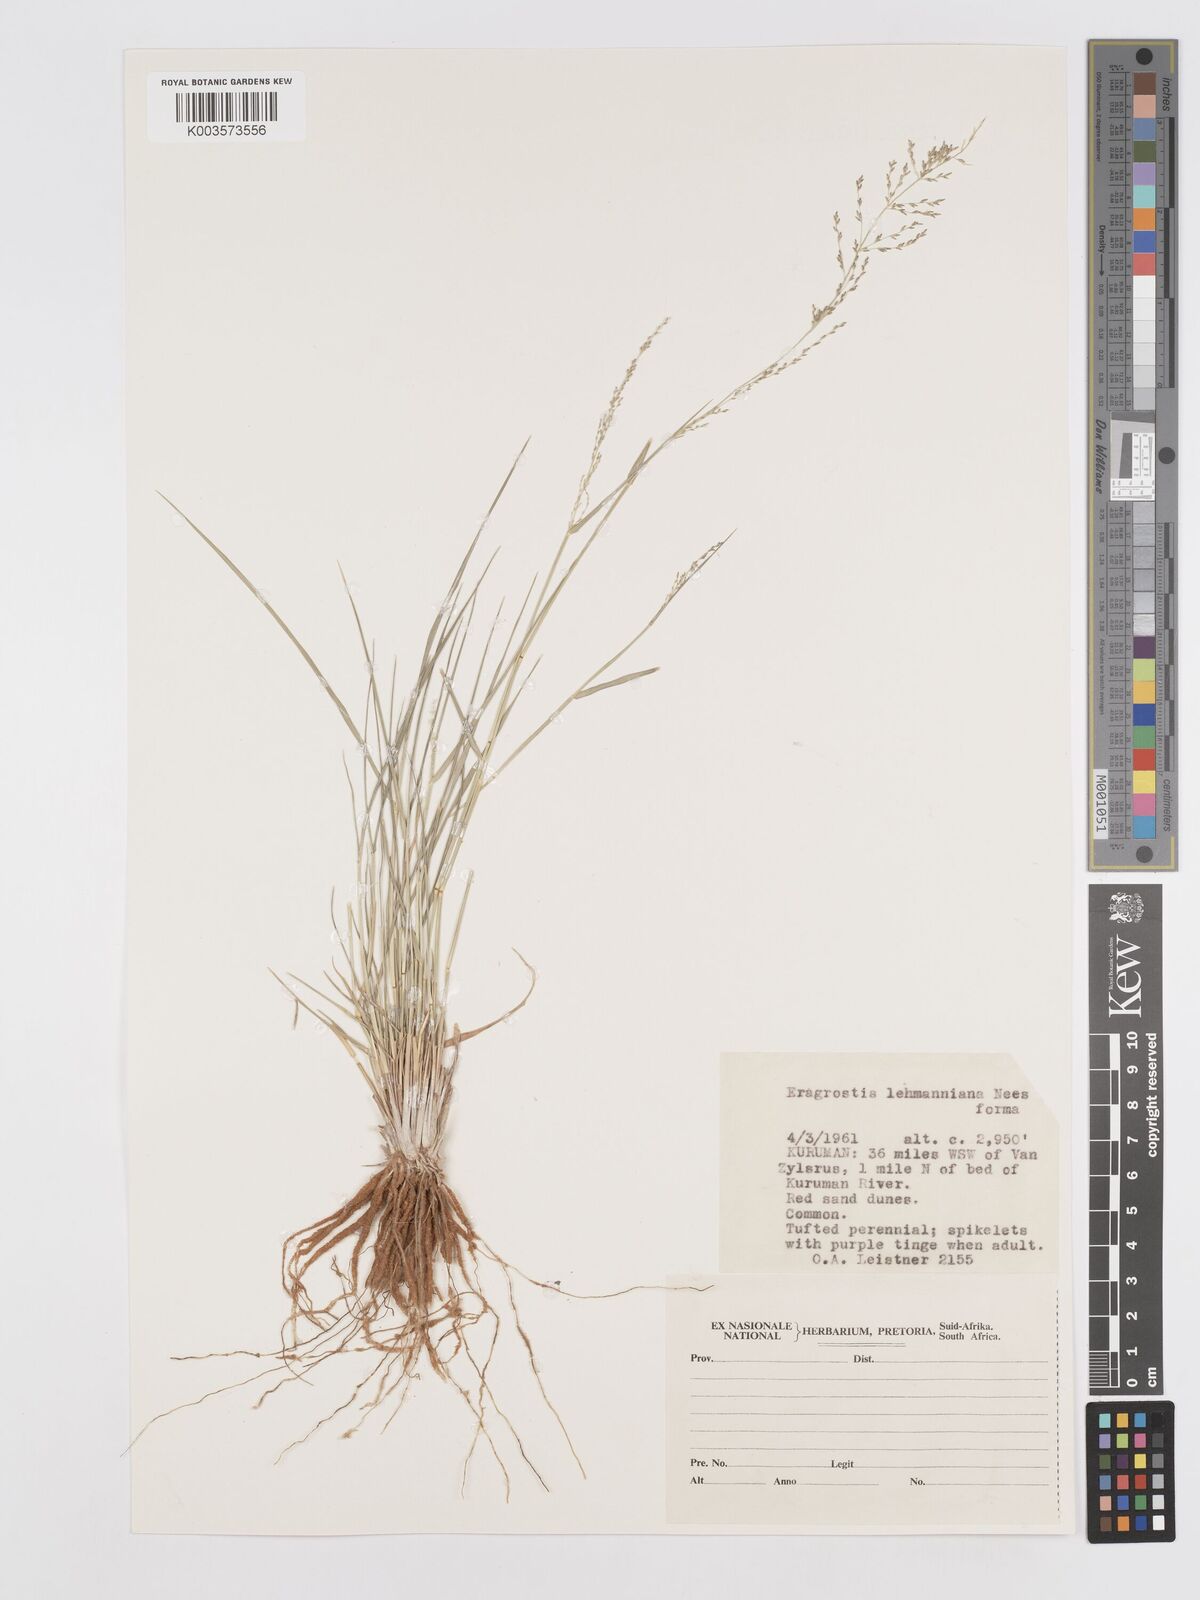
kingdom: Plantae
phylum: Tracheophyta
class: Liliopsida
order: Poales
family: Poaceae
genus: Eragrostis
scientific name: Eragrostis lehmanniana
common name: Lehmann lovegrass
